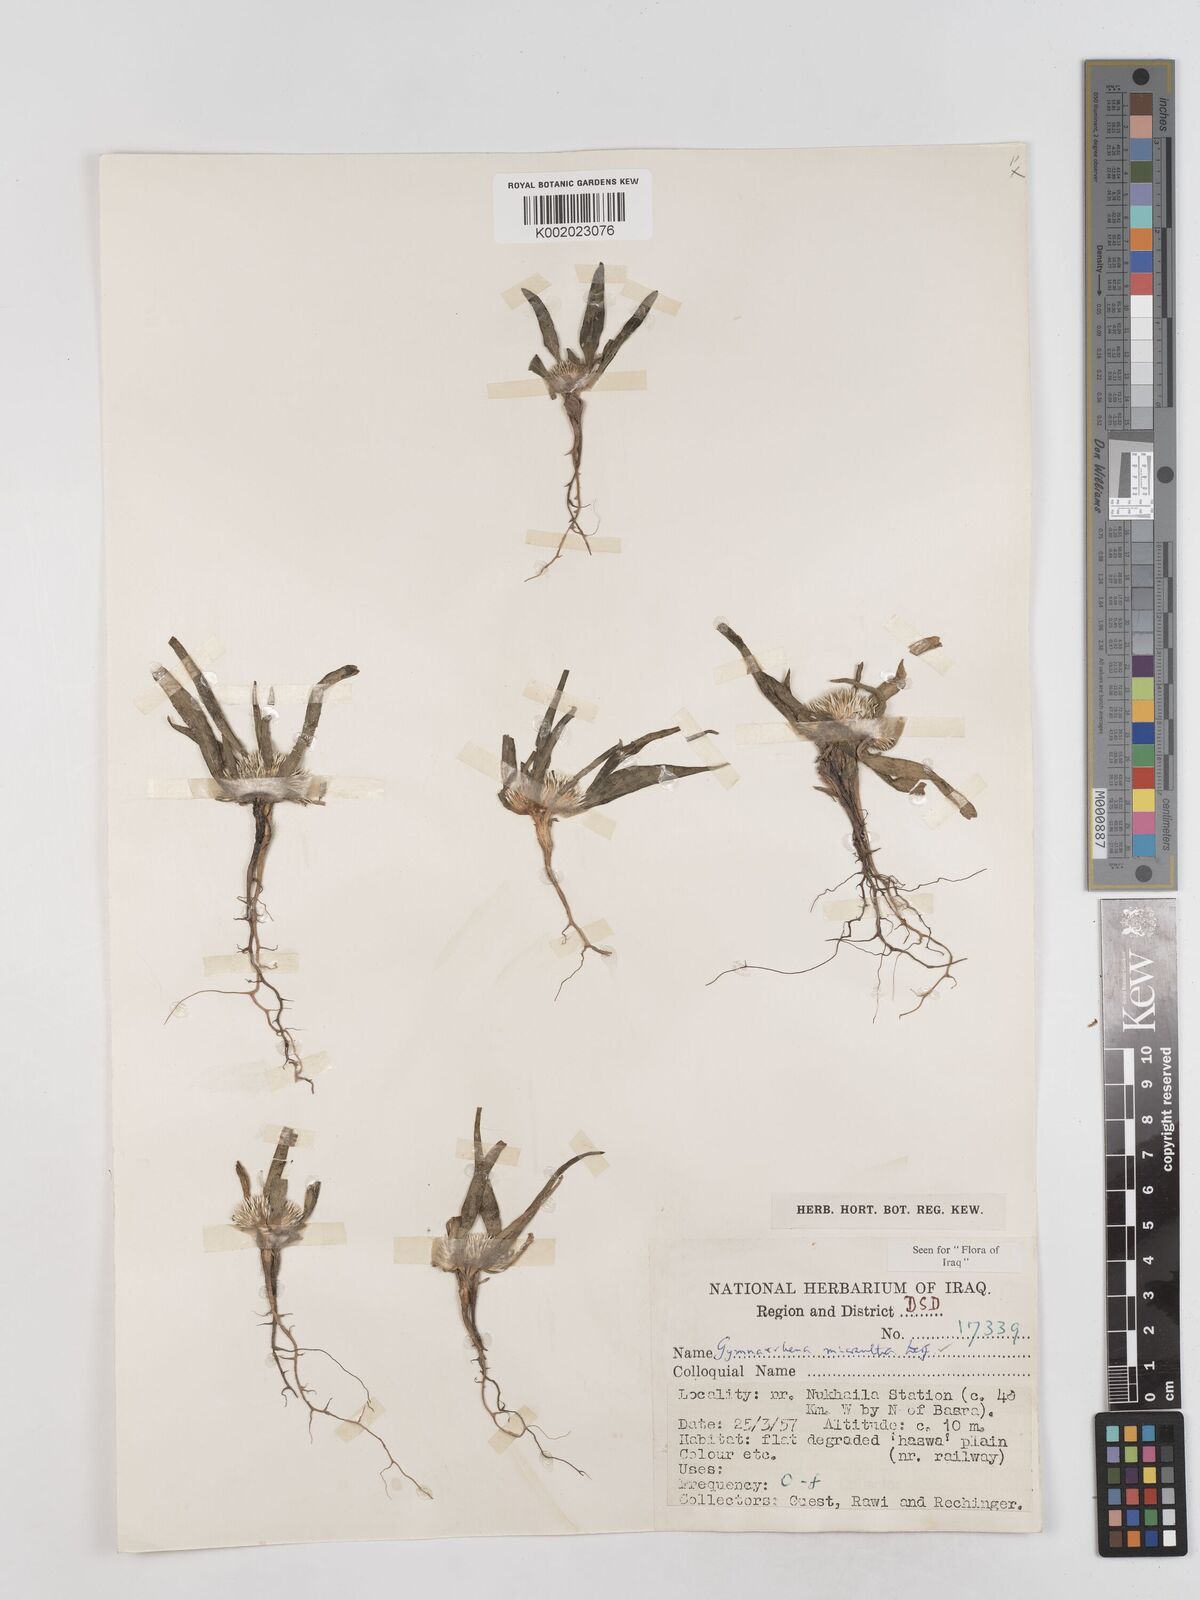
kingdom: Plantae
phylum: Tracheophyta
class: Magnoliopsida
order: Asterales
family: Asteraceae
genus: Gymnarrhena
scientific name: Gymnarrhena micrantha
